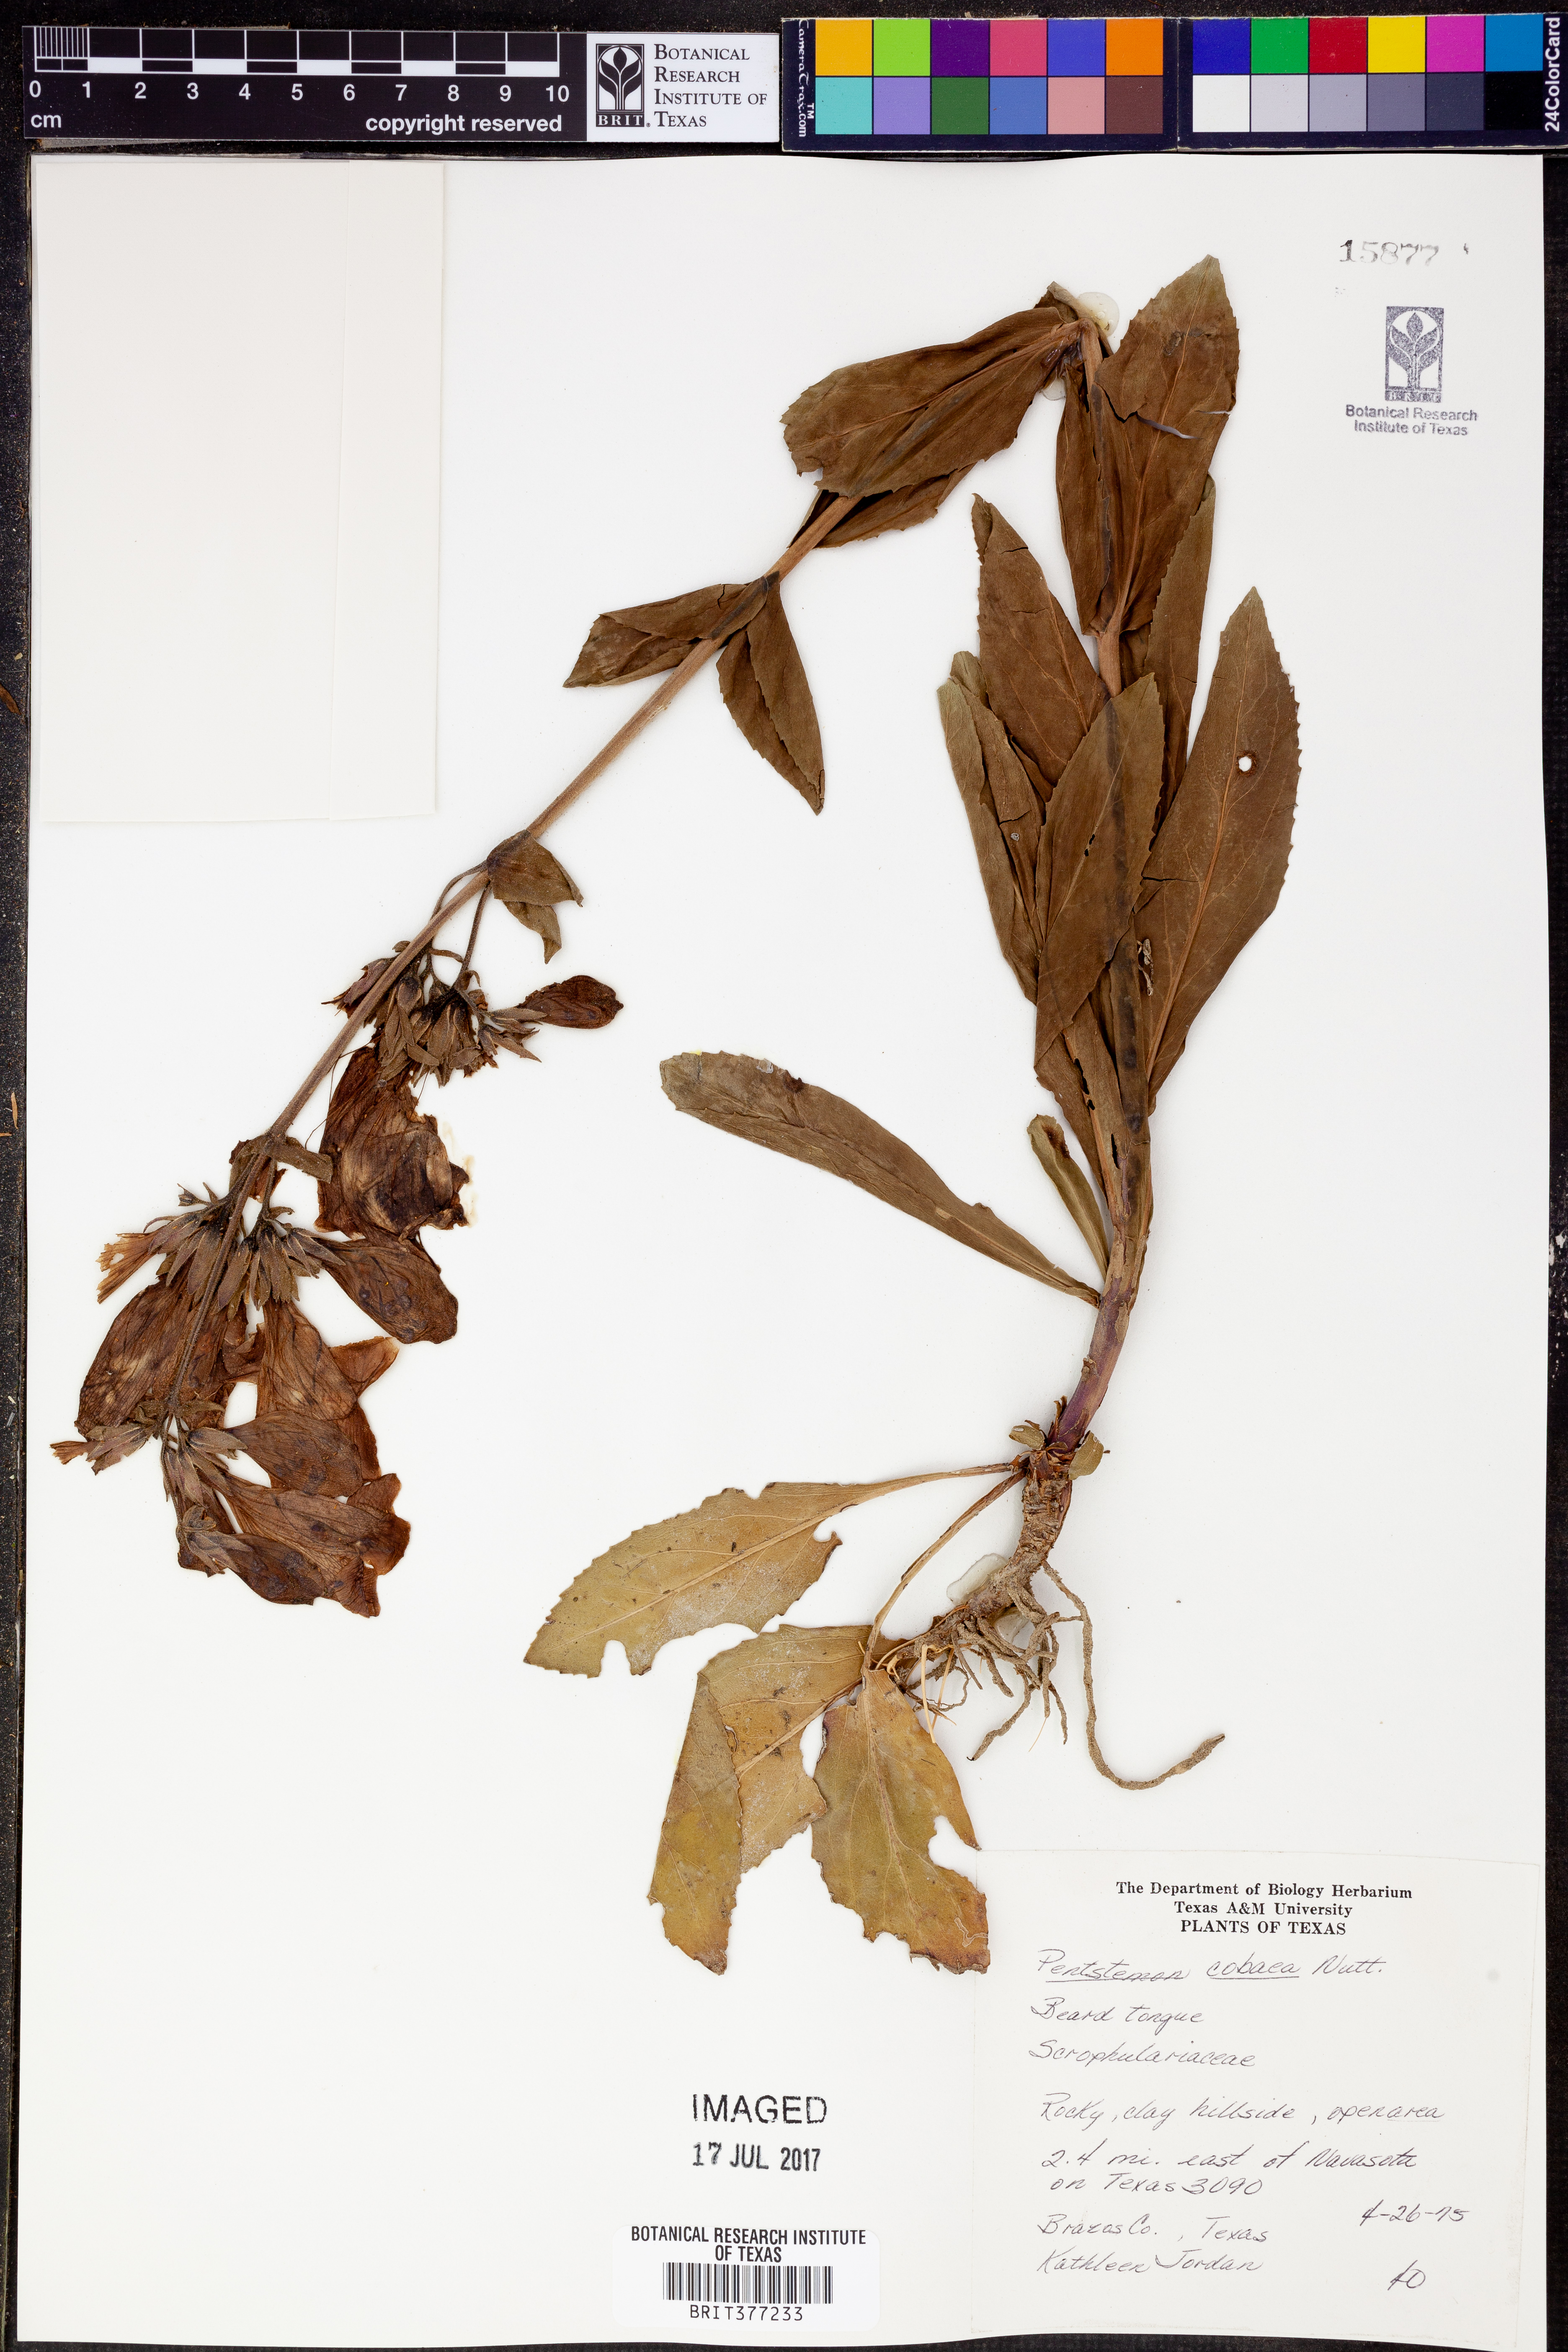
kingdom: Plantae
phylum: Tracheophyta
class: Magnoliopsida
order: Lamiales
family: Plantaginaceae
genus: Penstemon
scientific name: Penstemon cobaea
